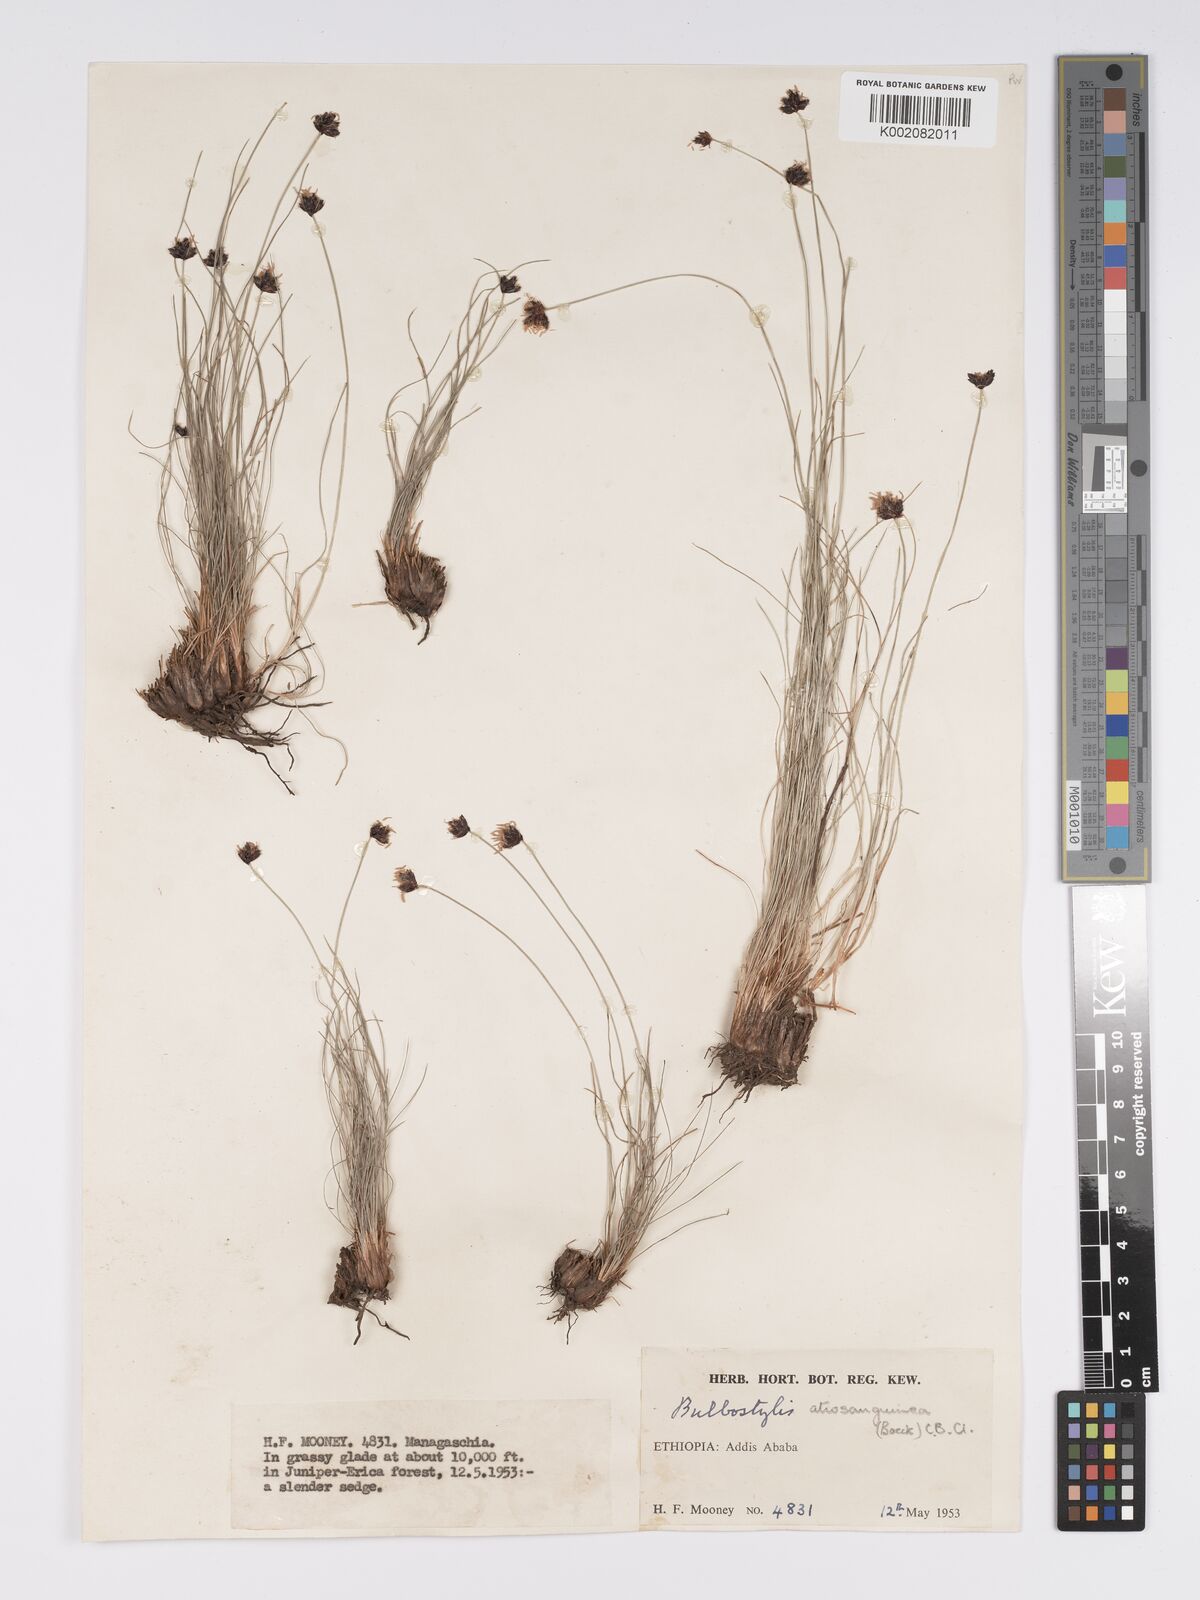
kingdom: Plantae
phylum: Tracheophyta
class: Liliopsida
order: Poales
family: Cyperaceae
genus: Bulbostylis
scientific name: Bulbostylis
